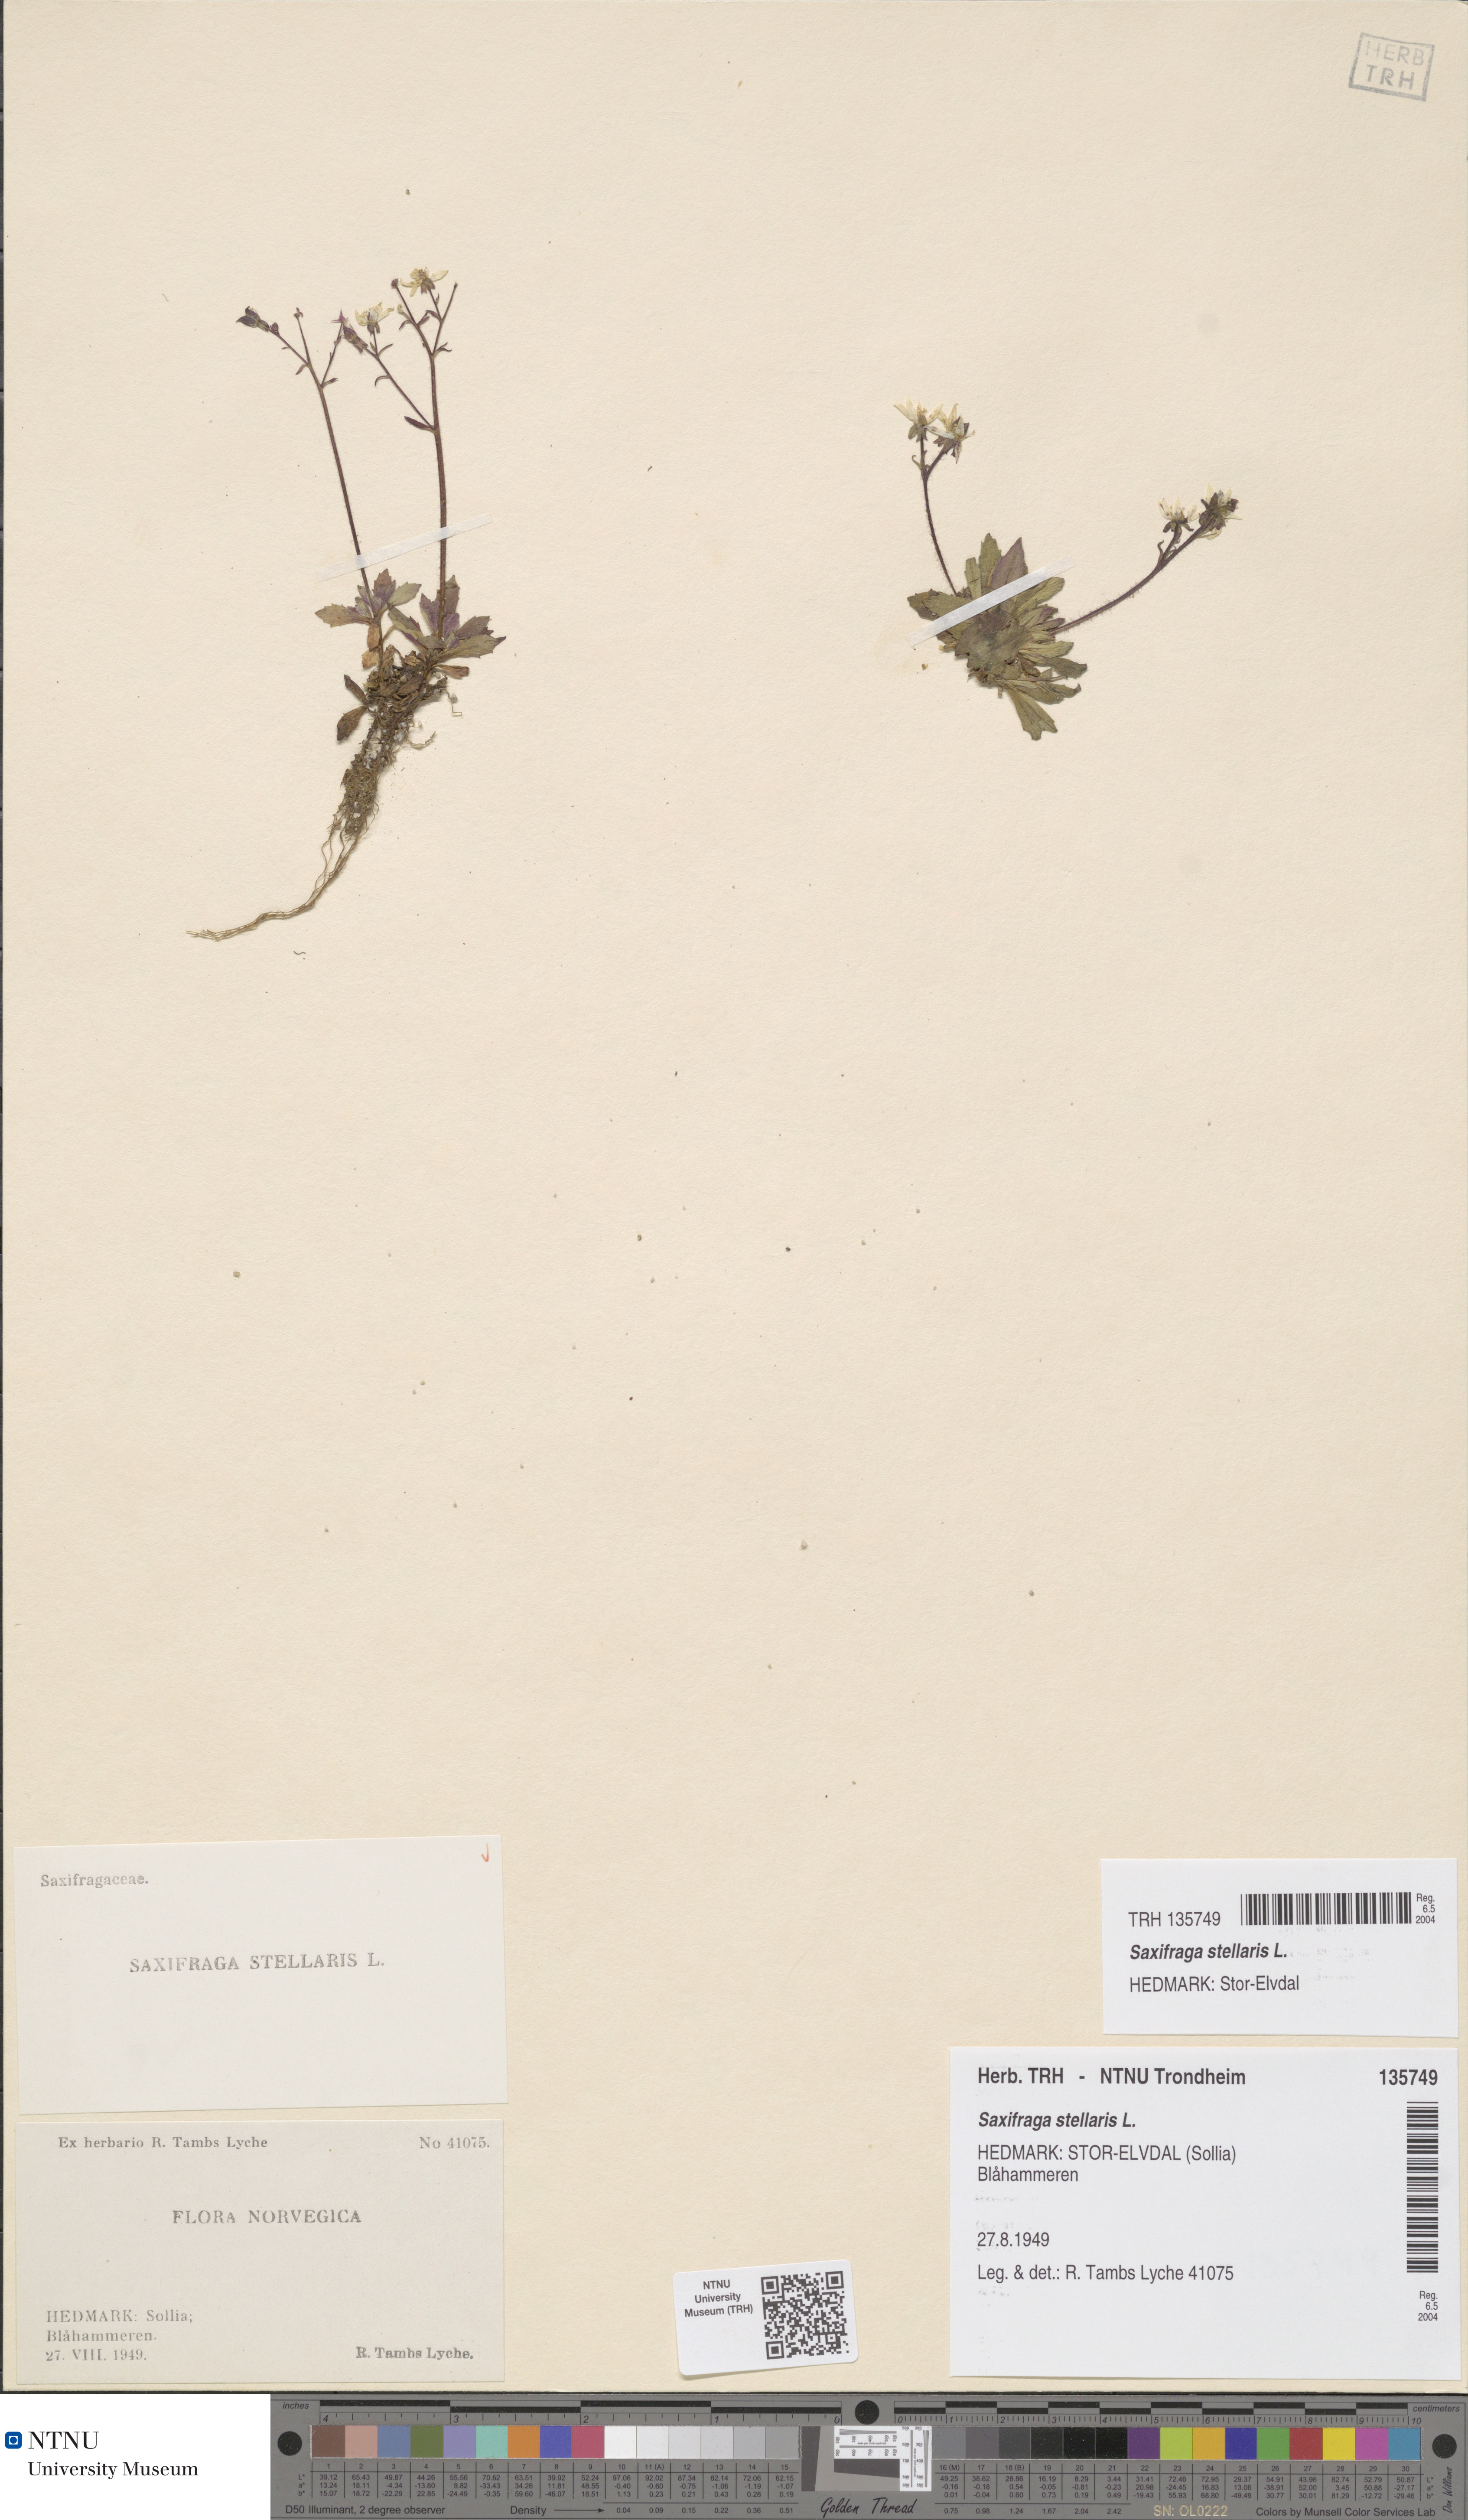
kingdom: Plantae
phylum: Tracheophyta
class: Magnoliopsida
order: Saxifragales
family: Saxifragaceae
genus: Micranthes
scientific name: Micranthes stellaris
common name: Starry saxifrage
